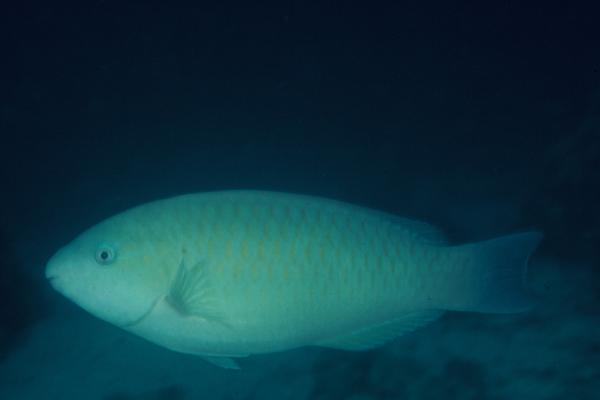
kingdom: Animalia
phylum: Chordata
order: Perciformes
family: Scaridae
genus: Scarus
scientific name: Scarus collana
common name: Greenband parrotfish
